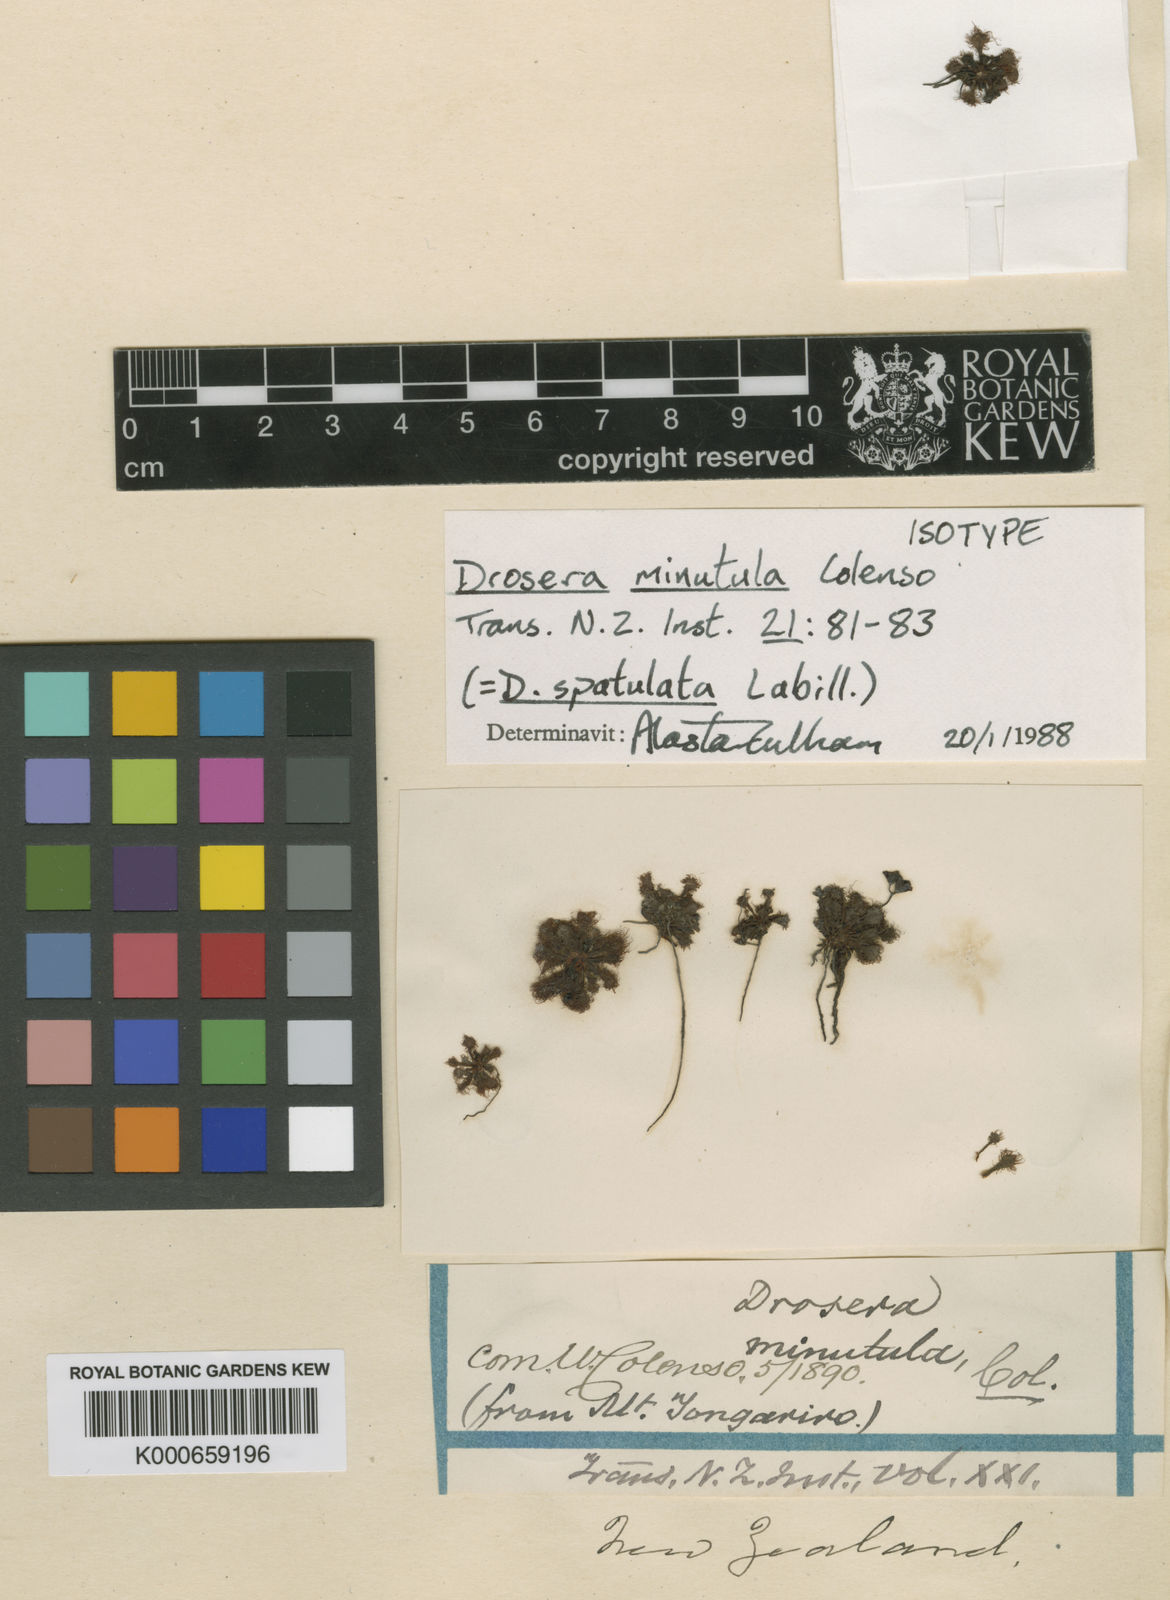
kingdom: Plantae
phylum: Tracheophyta
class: Magnoliopsida
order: Caryophyllales
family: Droseraceae
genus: Drosera
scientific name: Drosera
